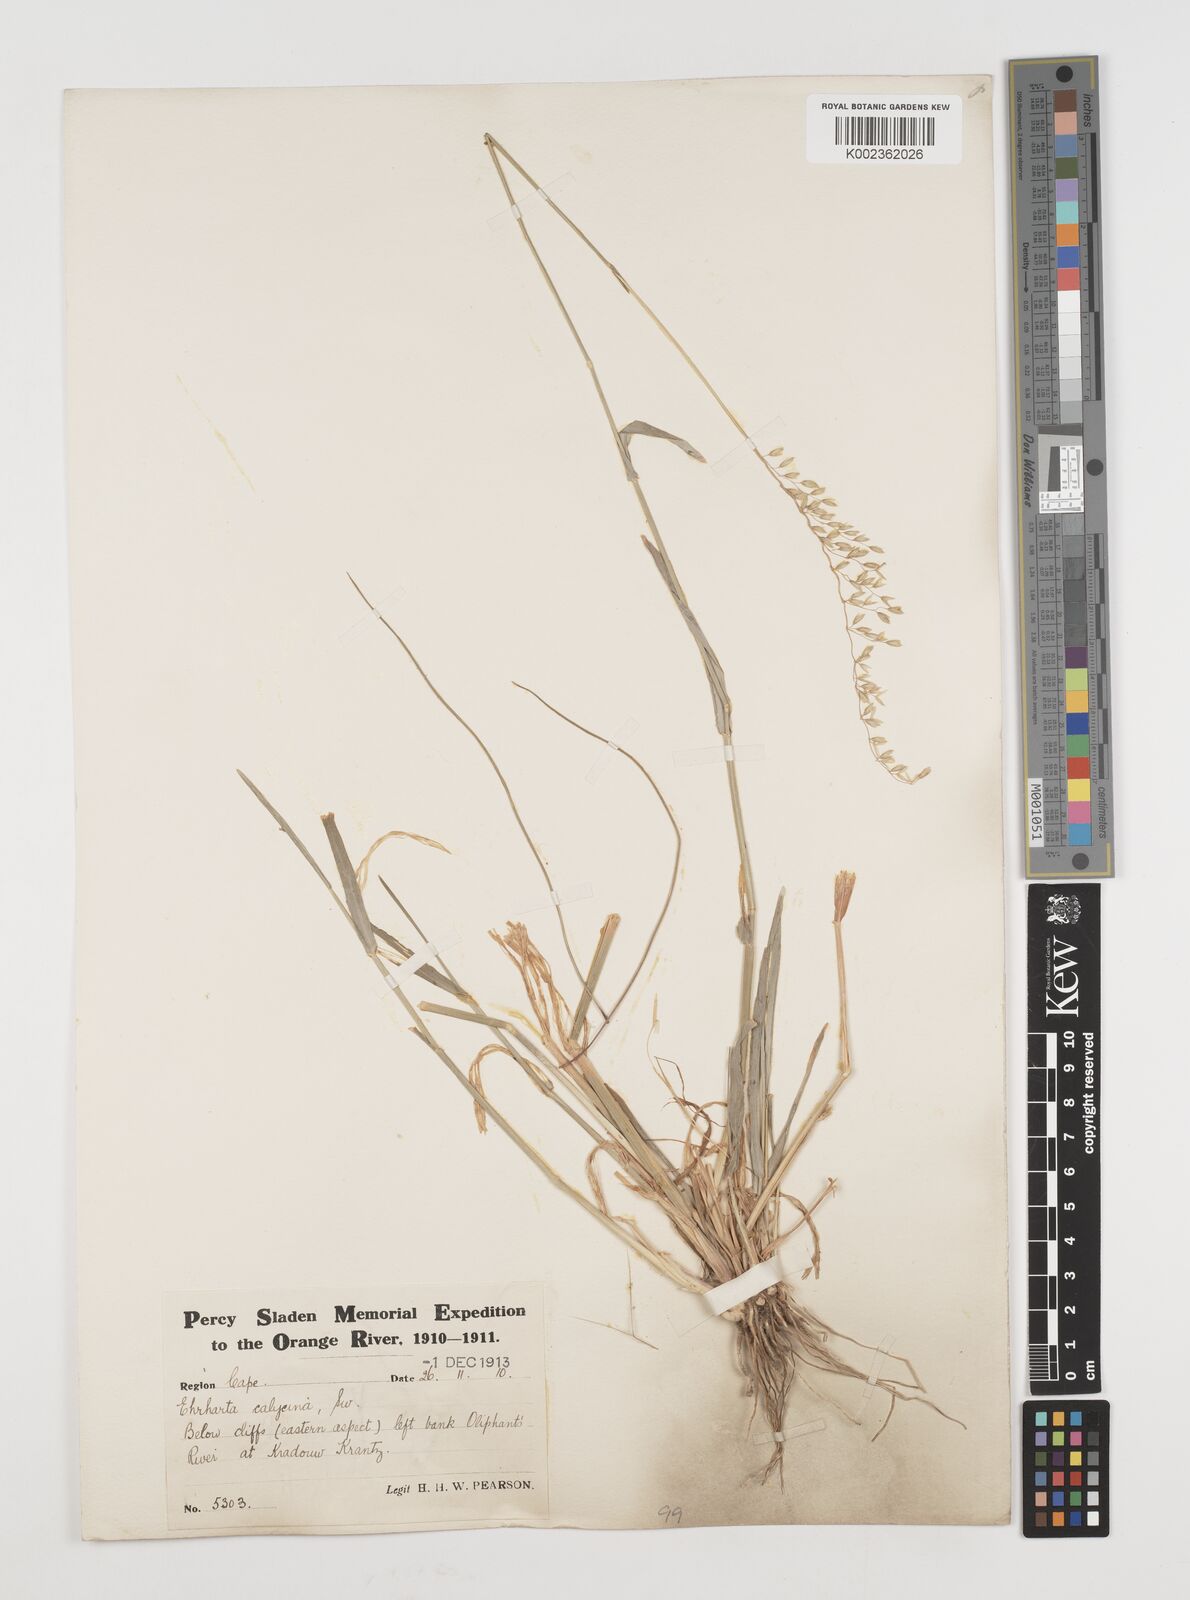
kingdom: Plantae
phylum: Tracheophyta
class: Liliopsida
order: Poales
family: Poaceae
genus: Ehrharta
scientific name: Ehrharta calycina
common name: Perennial veldtgrass
